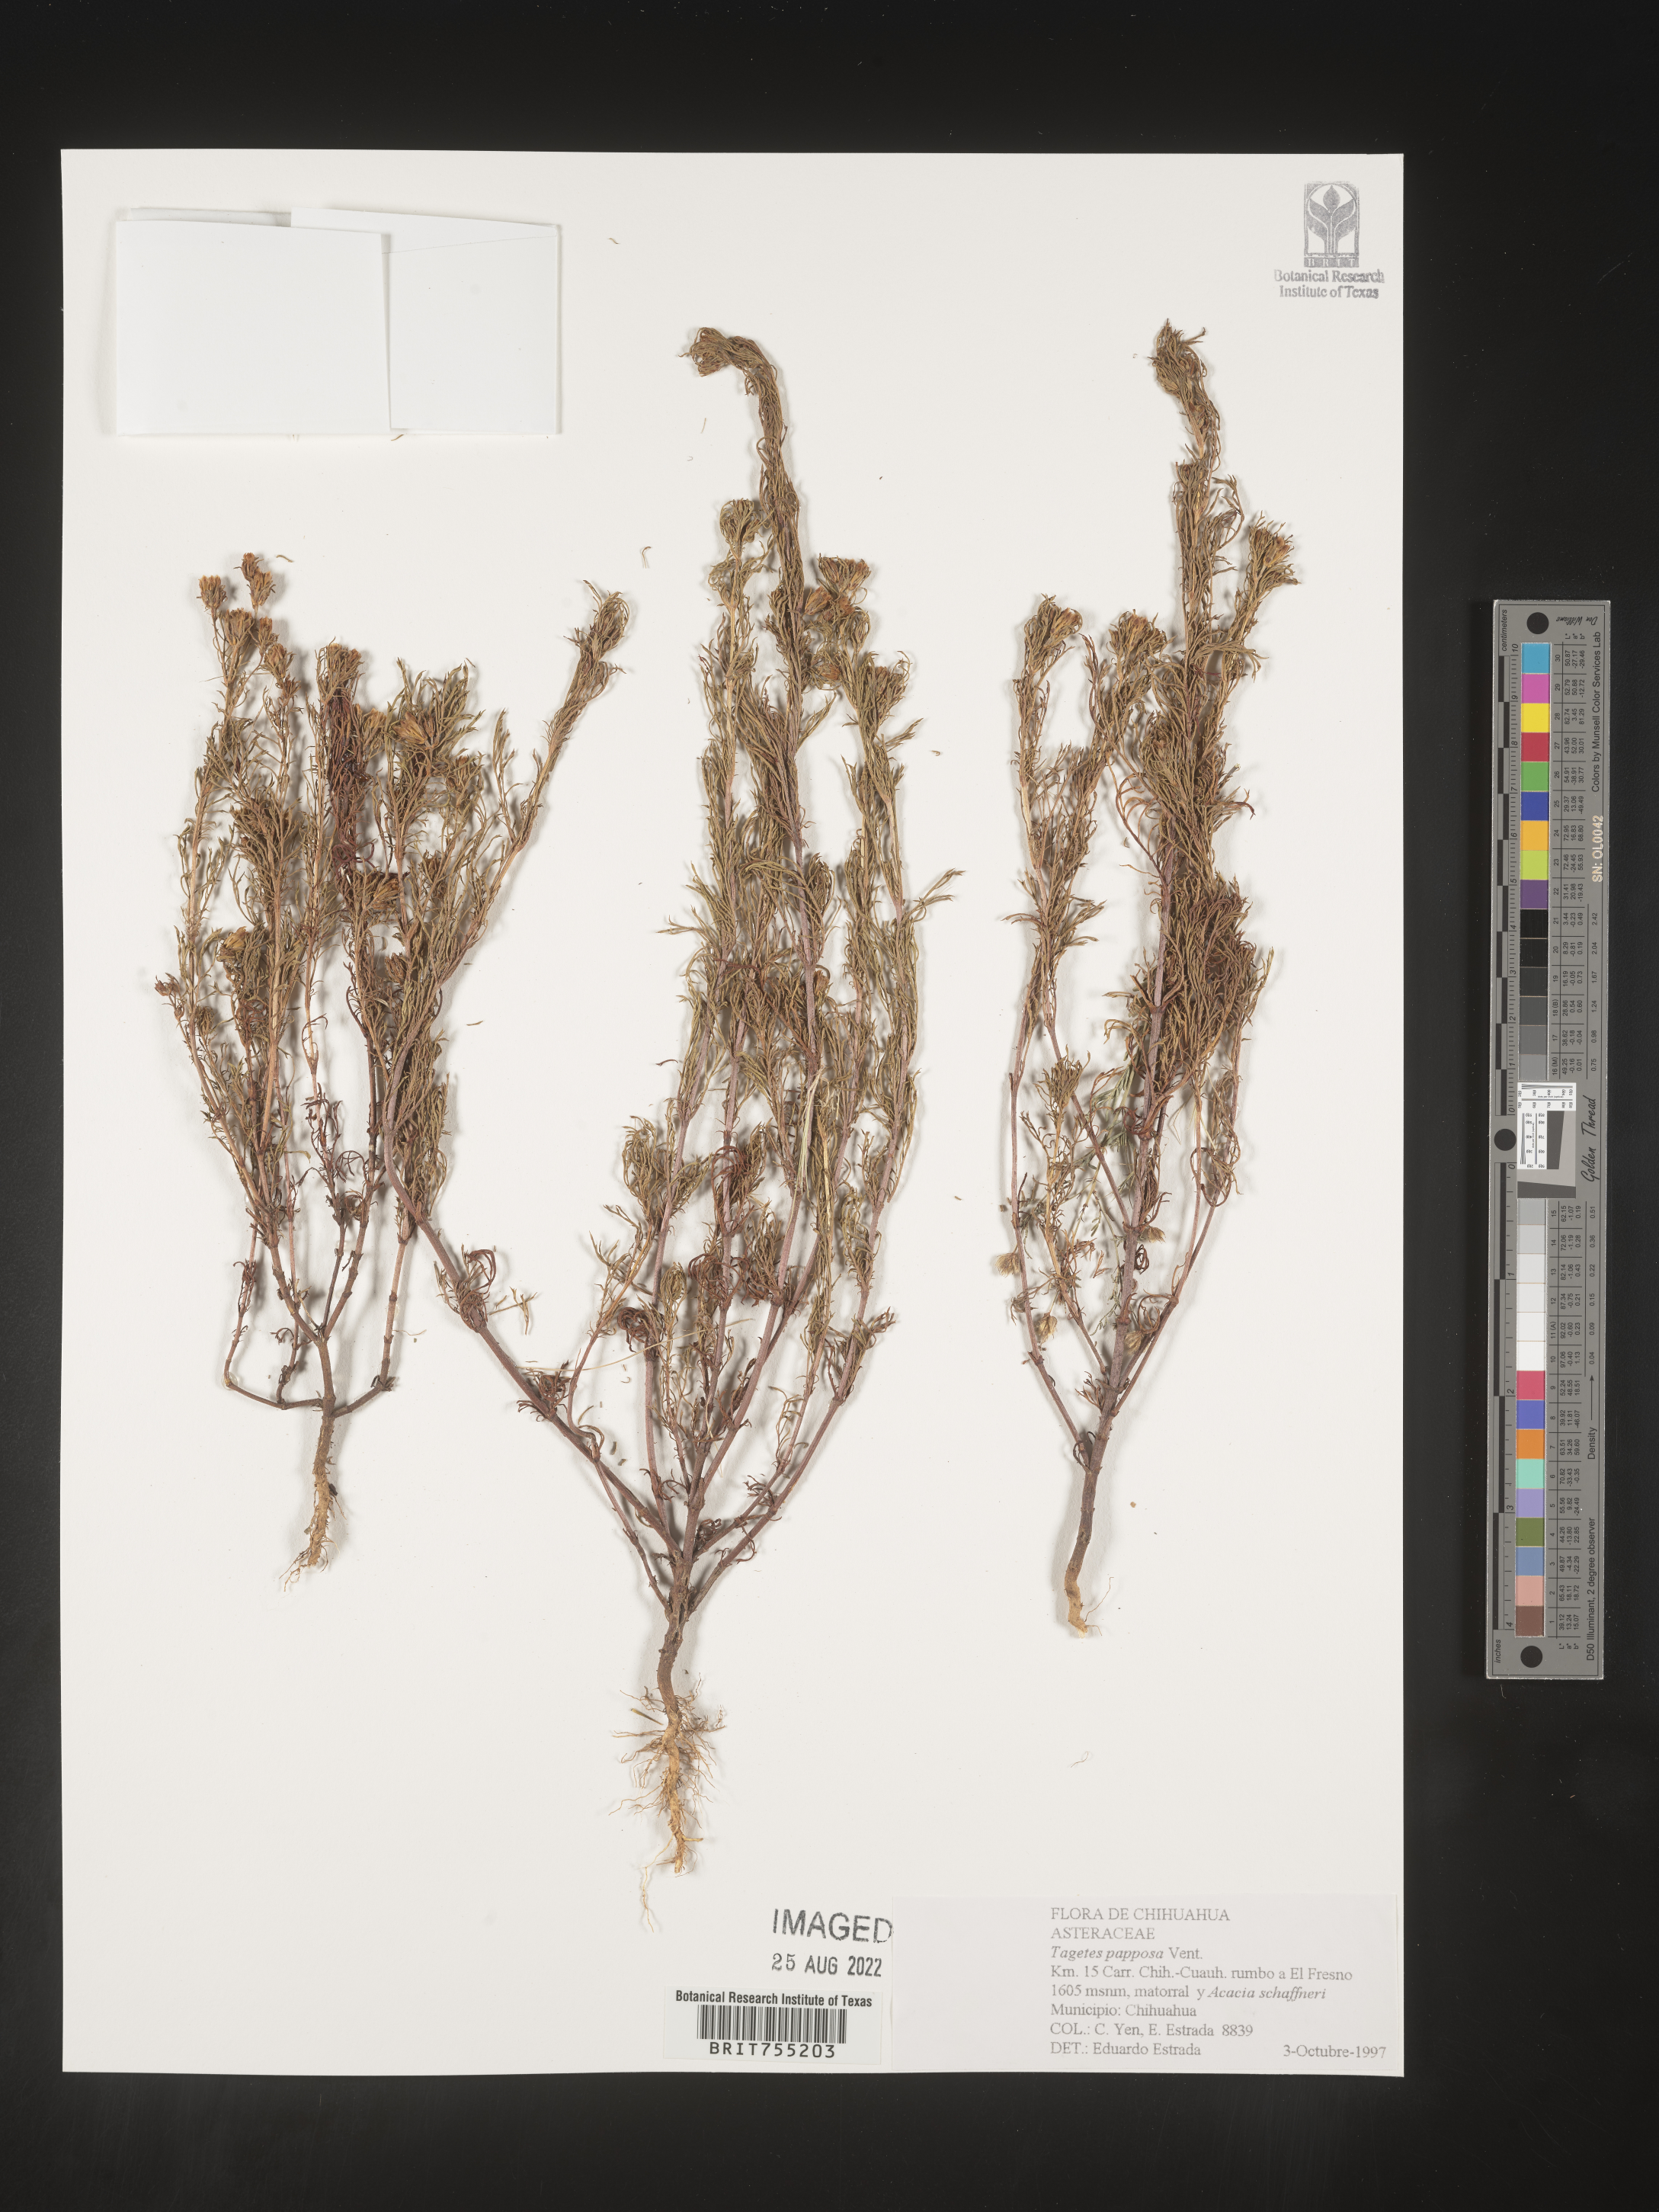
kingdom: Plantae
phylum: Tracheophyta
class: Magnoliopsida
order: Asterales
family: Asteraceae
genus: Tagetes
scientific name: Tagetes
